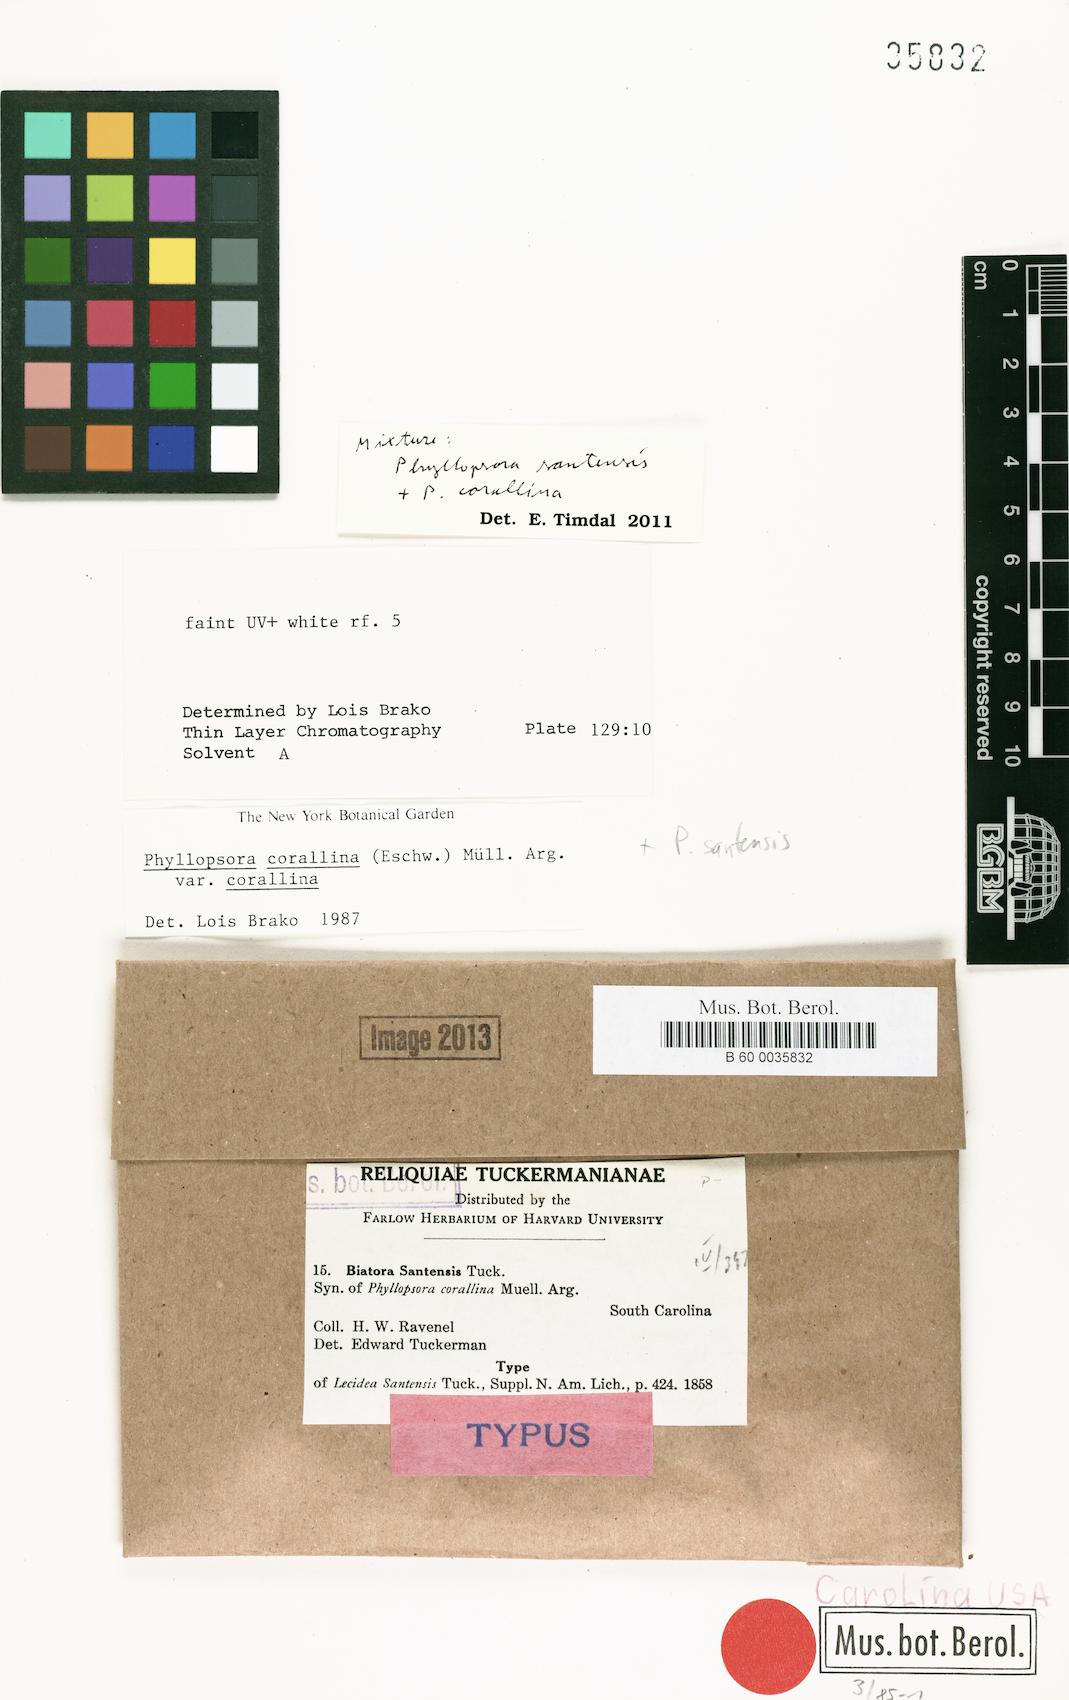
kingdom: Fungi
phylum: Ascomycota
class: Lecanoromycetes
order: Lecanorales
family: Ramalinaceae
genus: Phyllopsora
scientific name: Phyllopsora santensis
